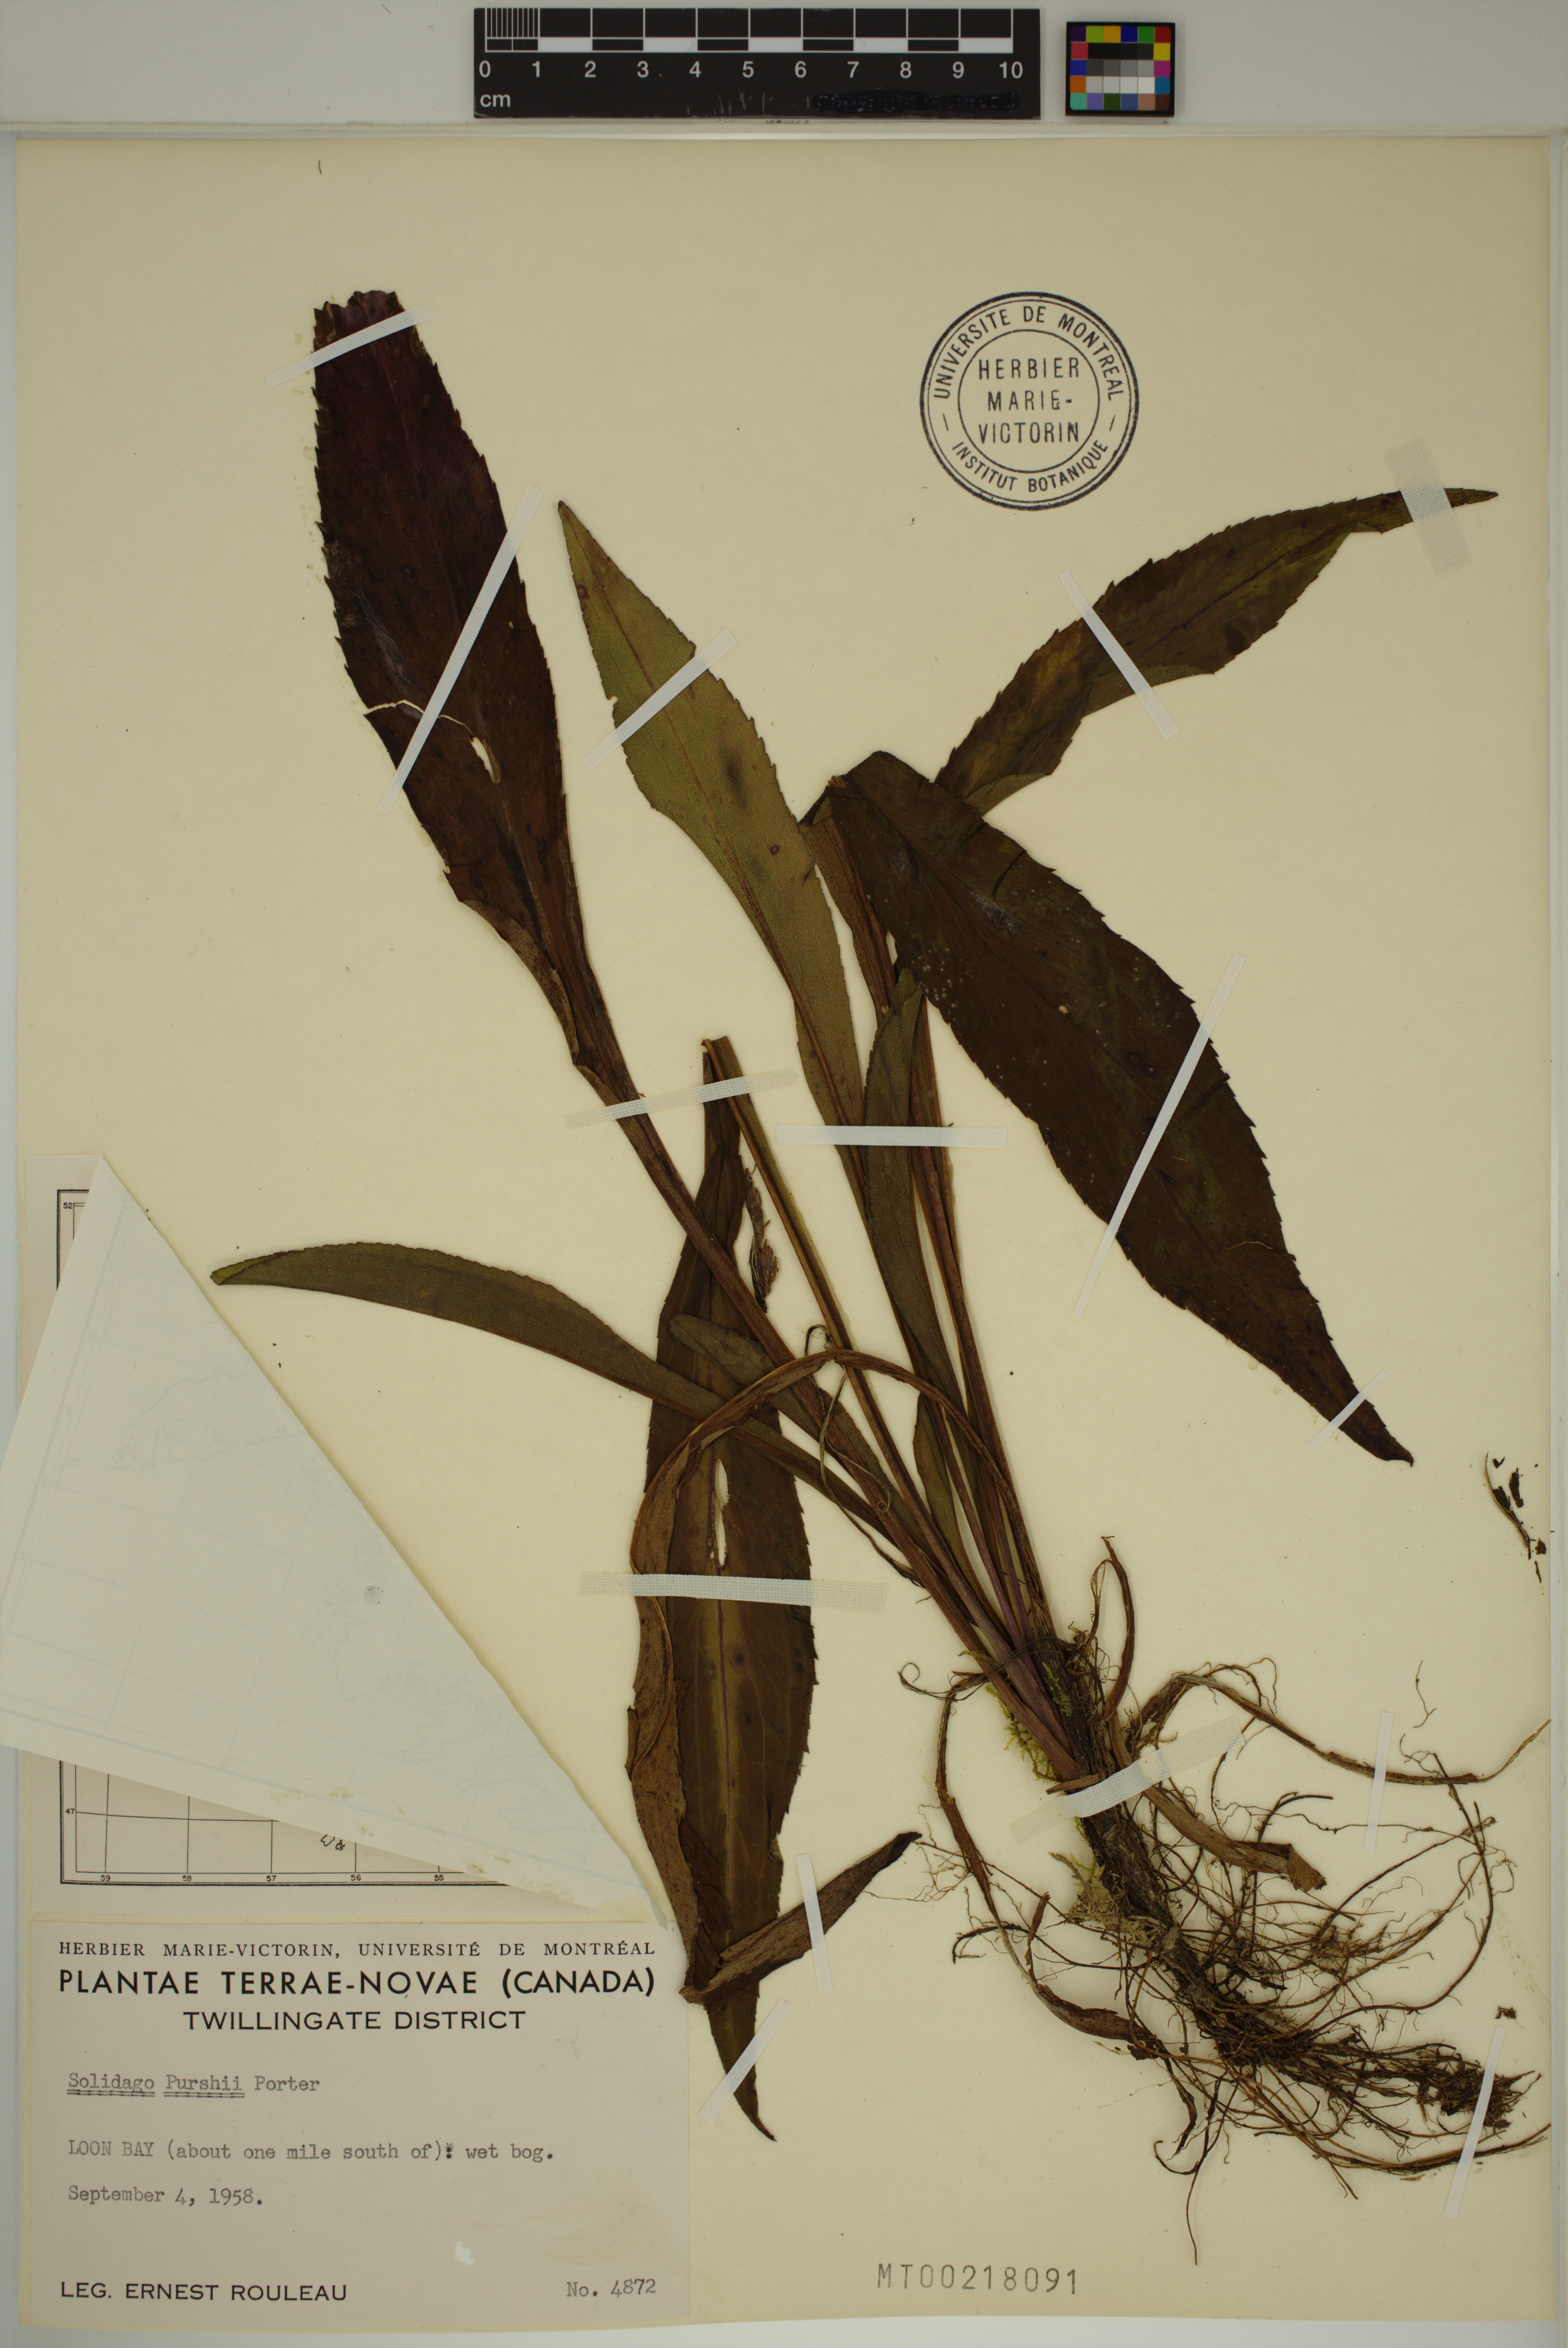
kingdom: Plantae
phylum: Tracheophyta
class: Magnoliopsida
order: Asterales
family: Asteraceae
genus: Solidago
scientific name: Solidago uliginosa
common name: Bog goldenrod
